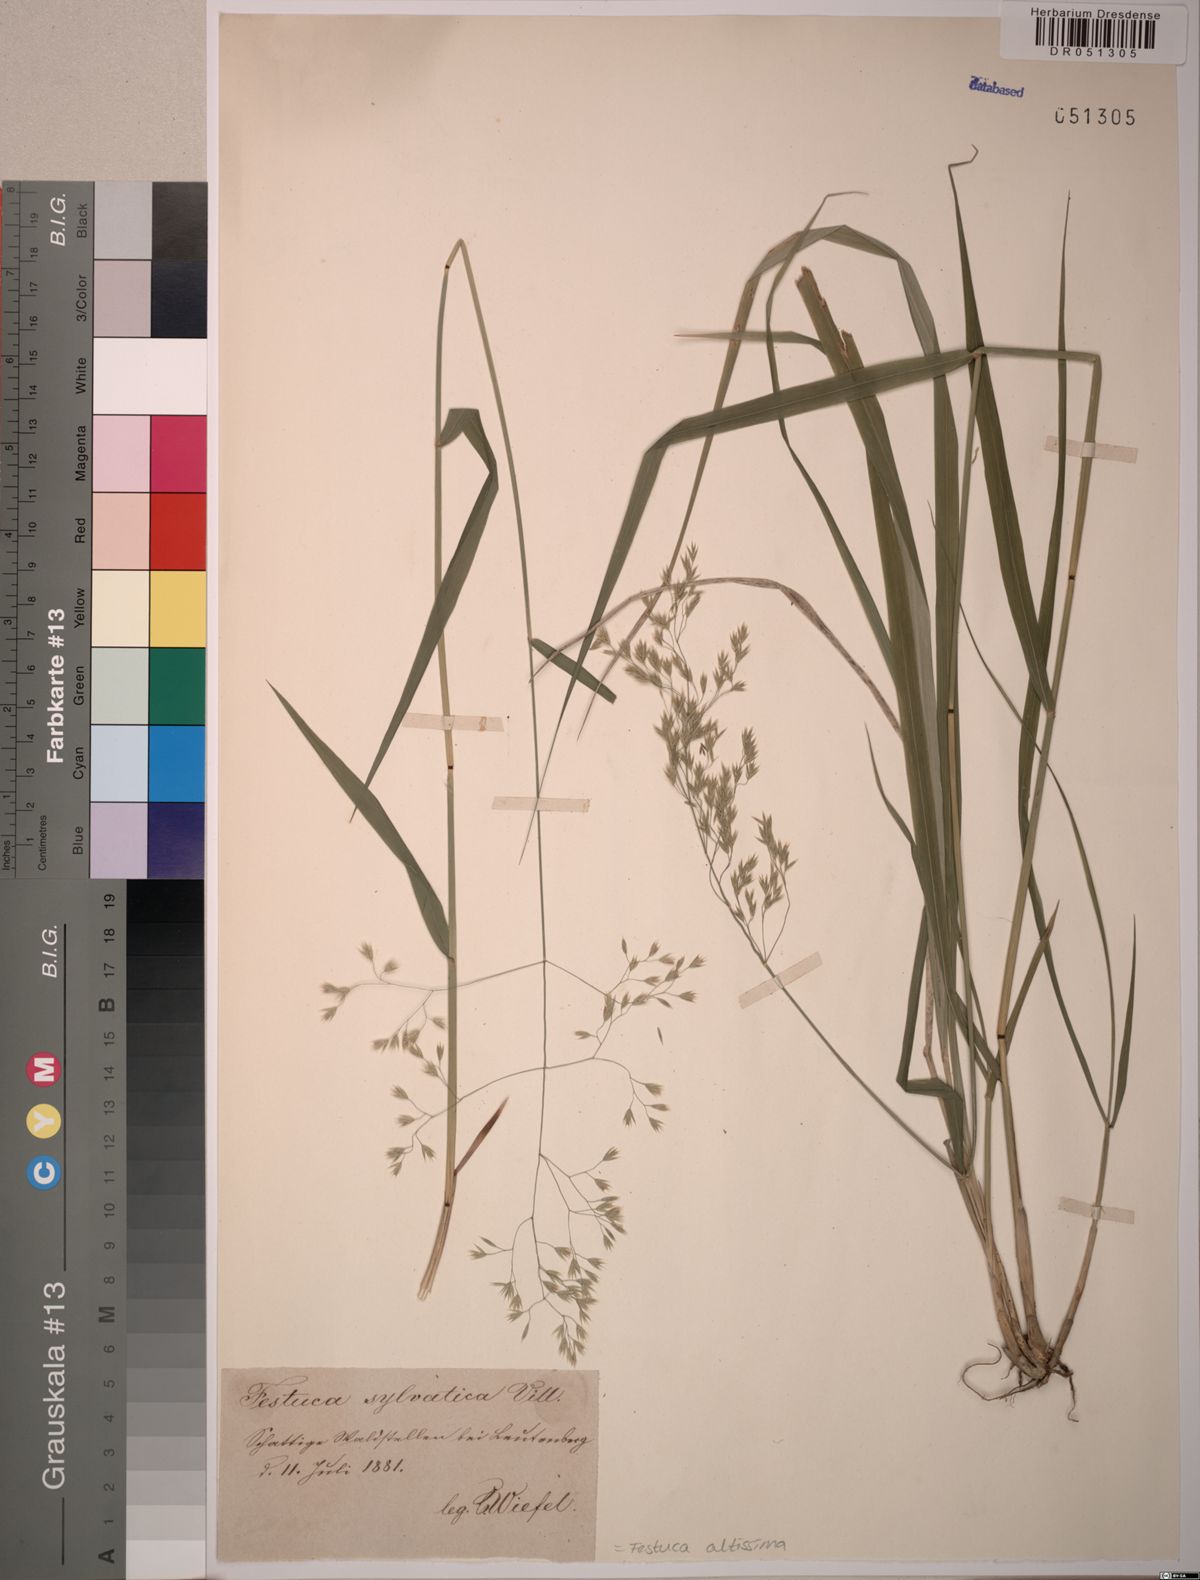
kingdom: Plantae
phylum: Tracheophyta
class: Liliopsida
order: Poales
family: Poaceae
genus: Festuca
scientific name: Festuca altissima
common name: Wood fescue
